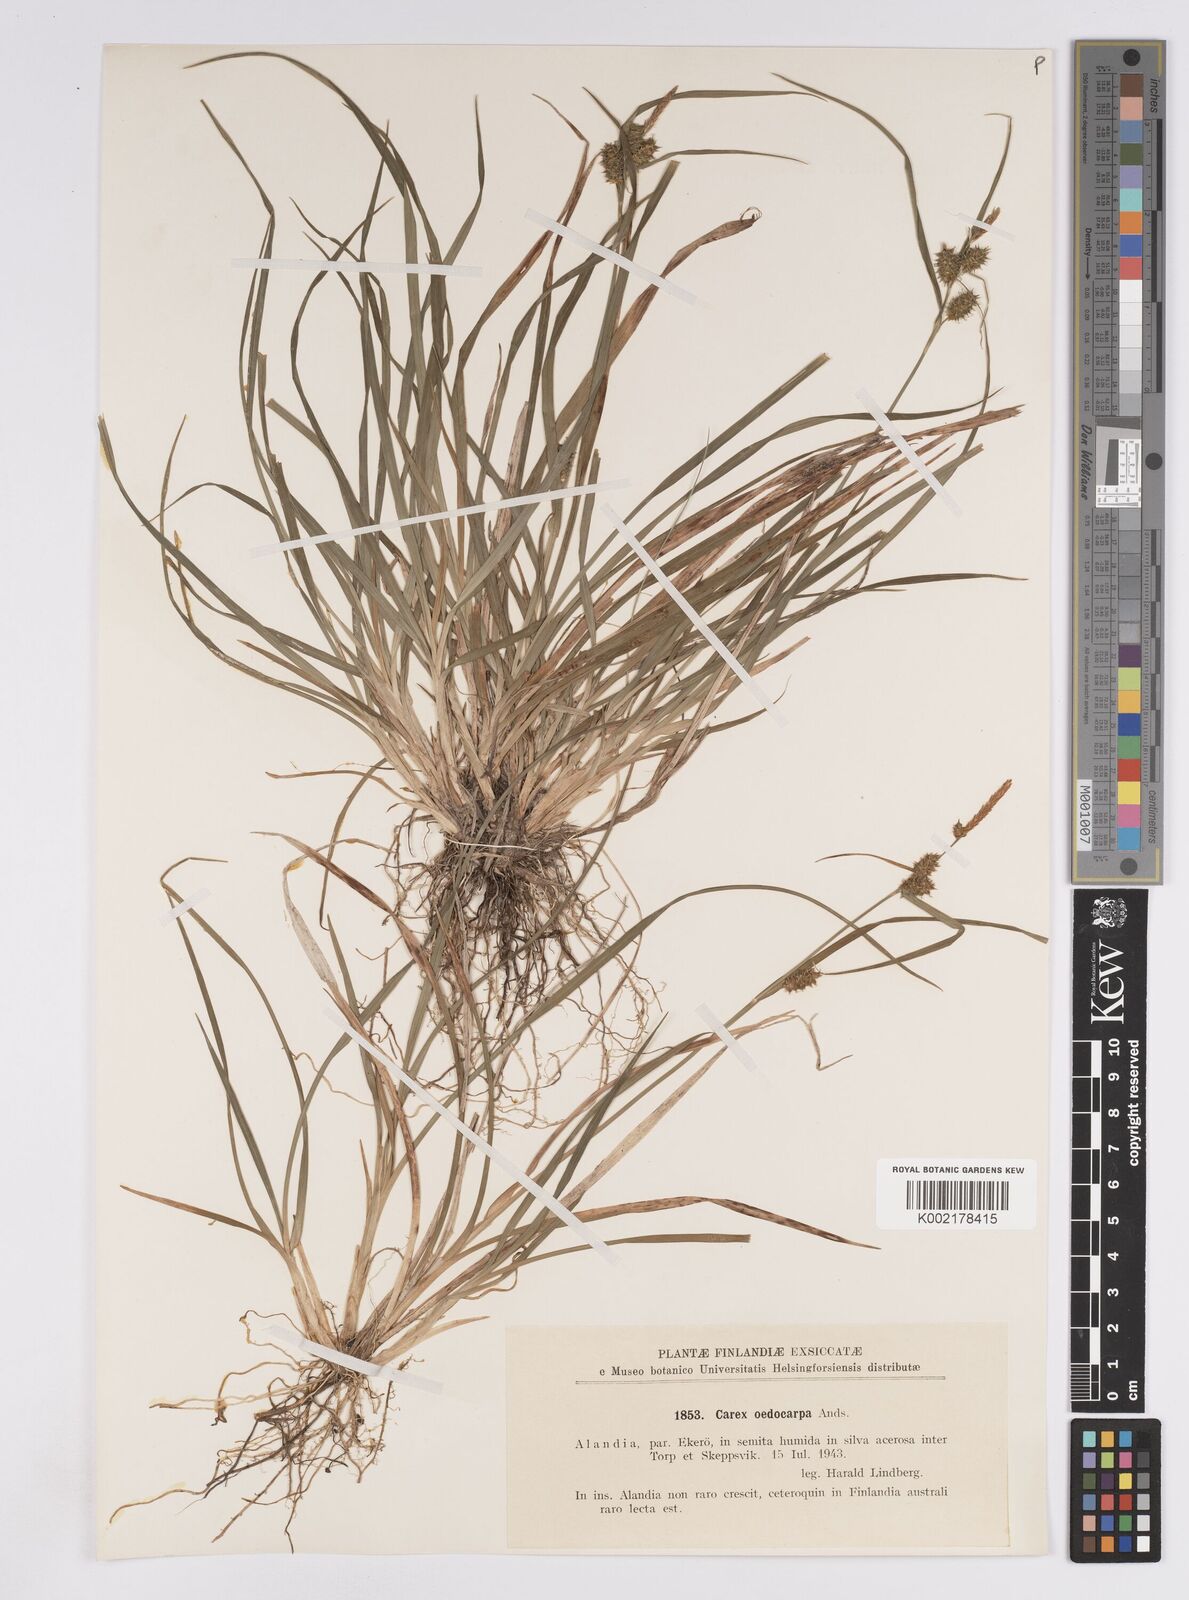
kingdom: Plantae
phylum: Tracheophyta
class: Liliopsida
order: Poales
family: Cyperaceae
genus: Carex
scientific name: Carex demissa
